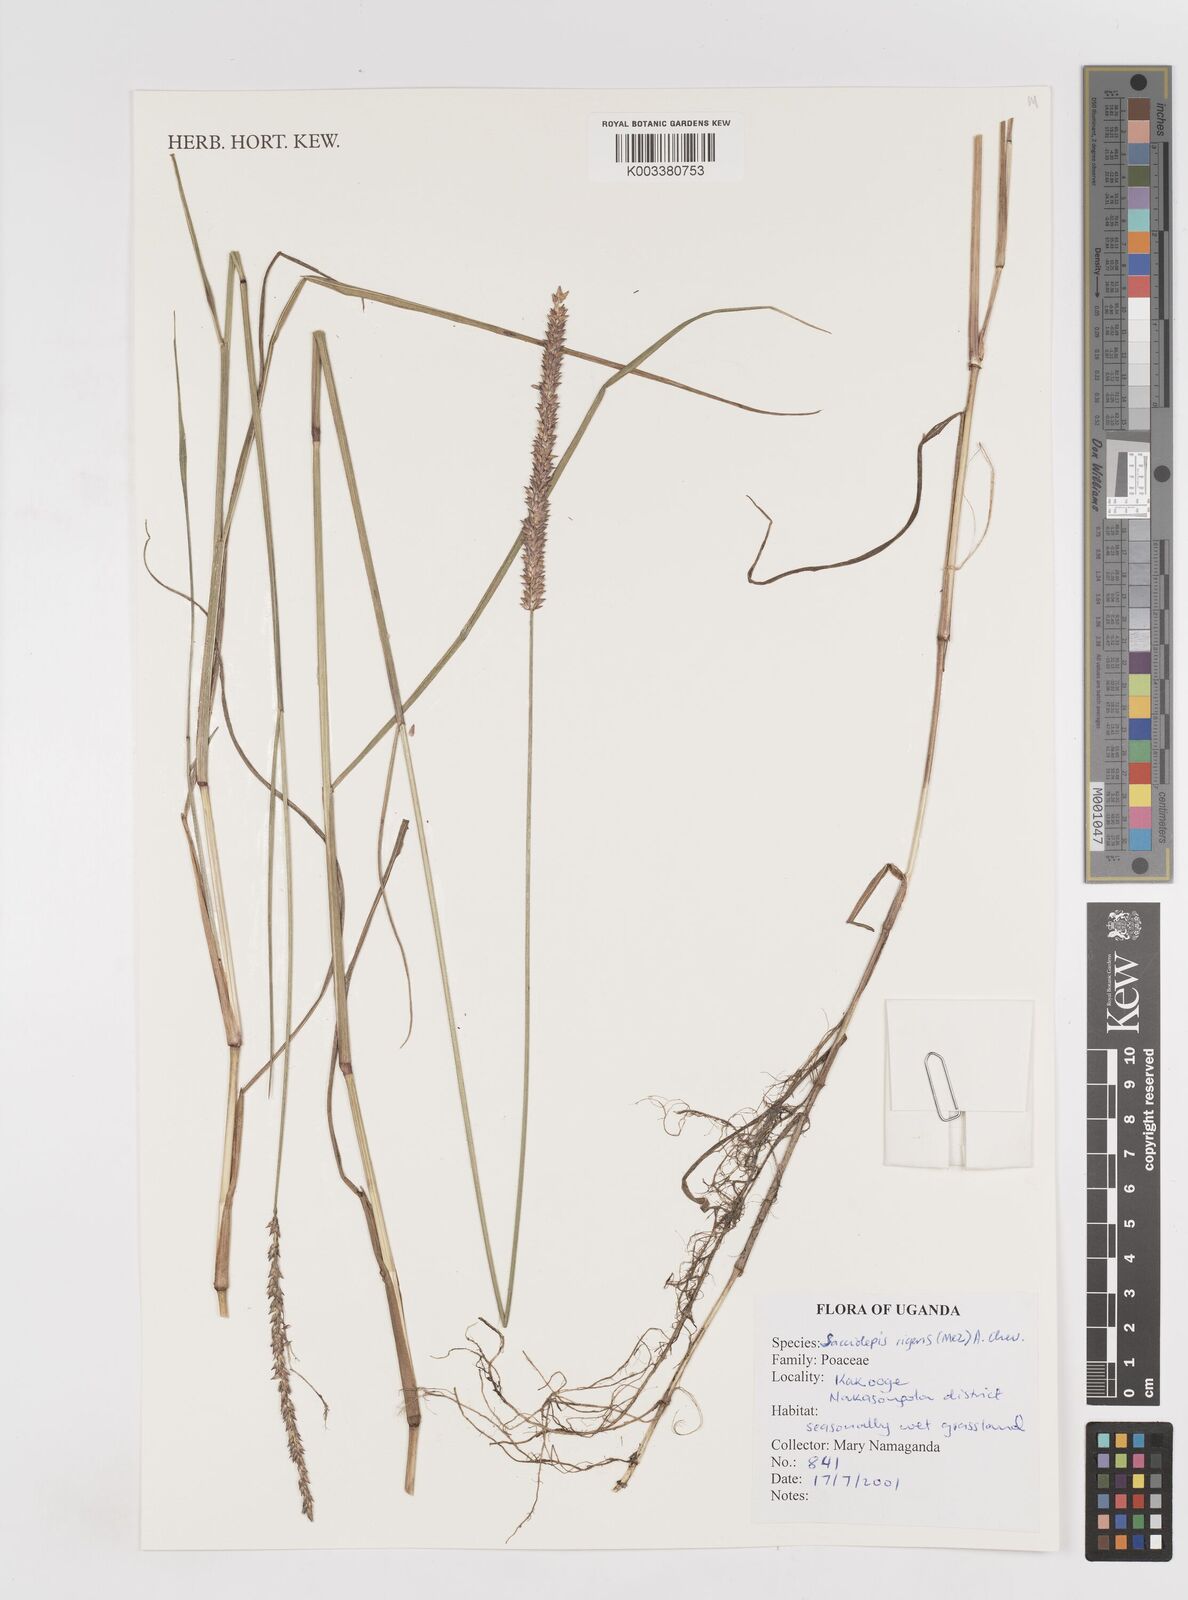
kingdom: Plantae
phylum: Tracheophyta
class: Liliopsida
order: Poales
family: Poaceae
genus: Sacciolepis
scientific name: Sacciolepis leptorrhachis
